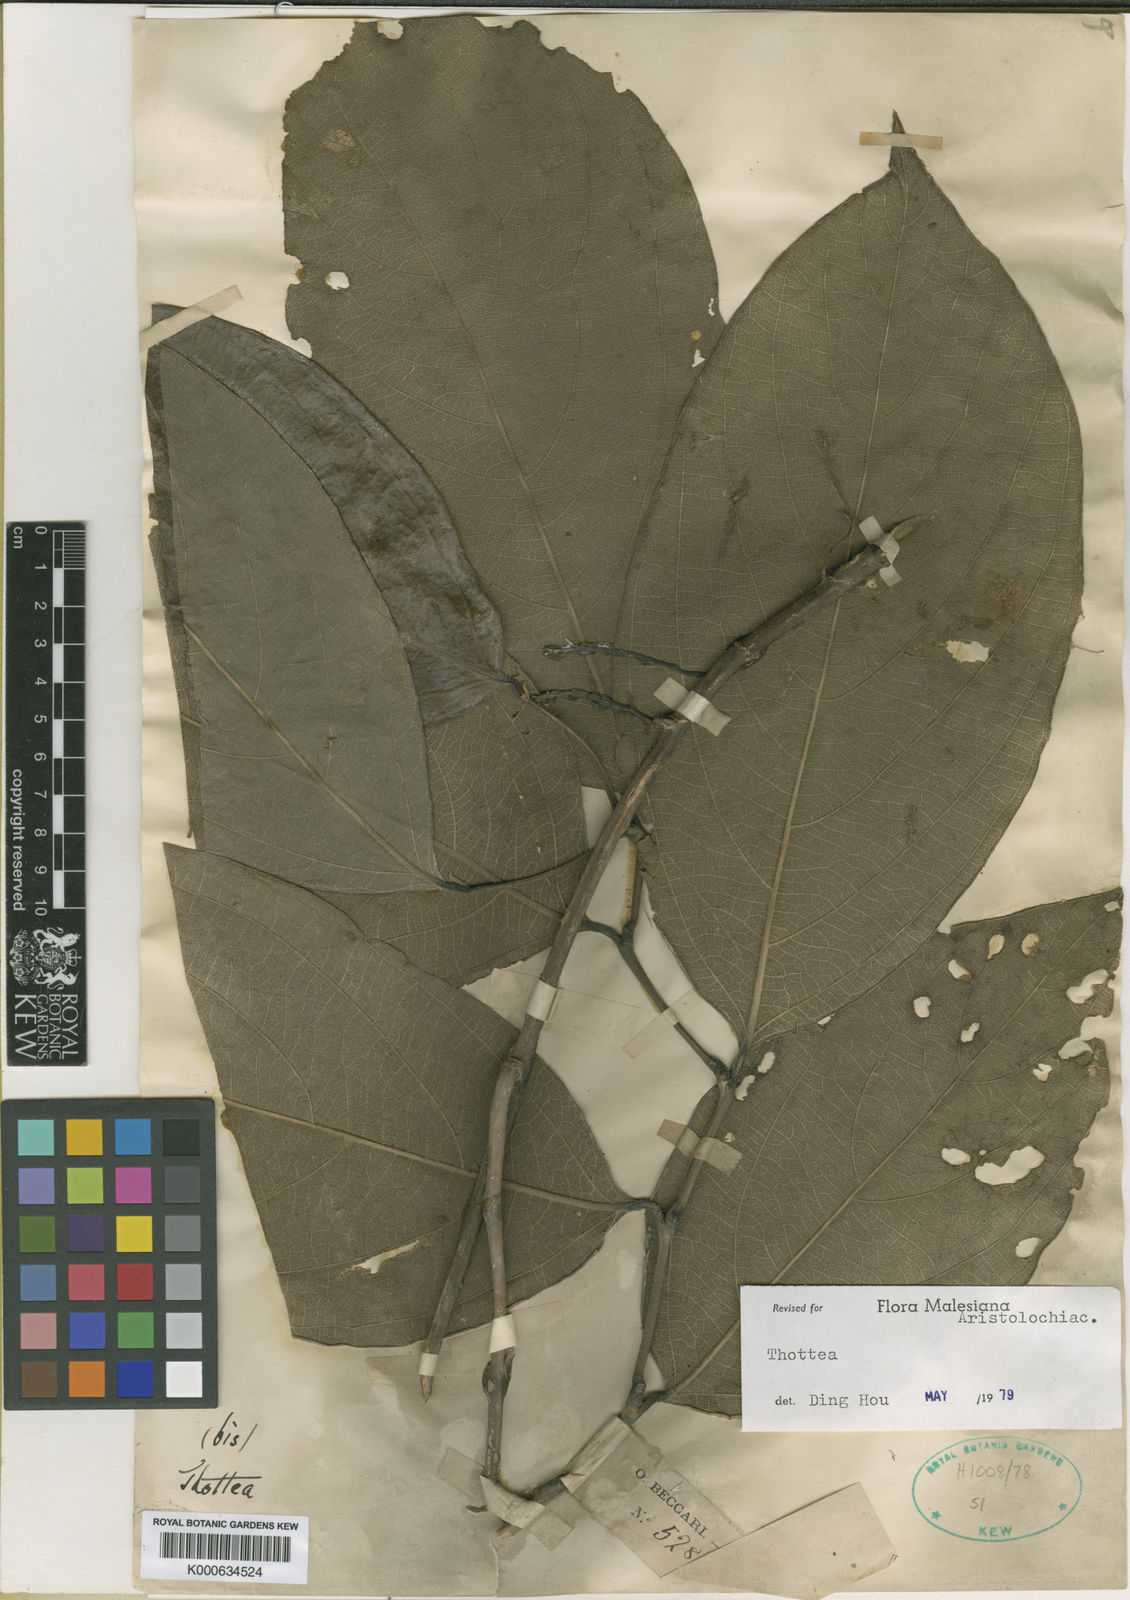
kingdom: Plantae
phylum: Tracheophyta
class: Magnoliopsida
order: Piperales
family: Aristolochiaceae
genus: Thottea
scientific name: Thottea beccarii
